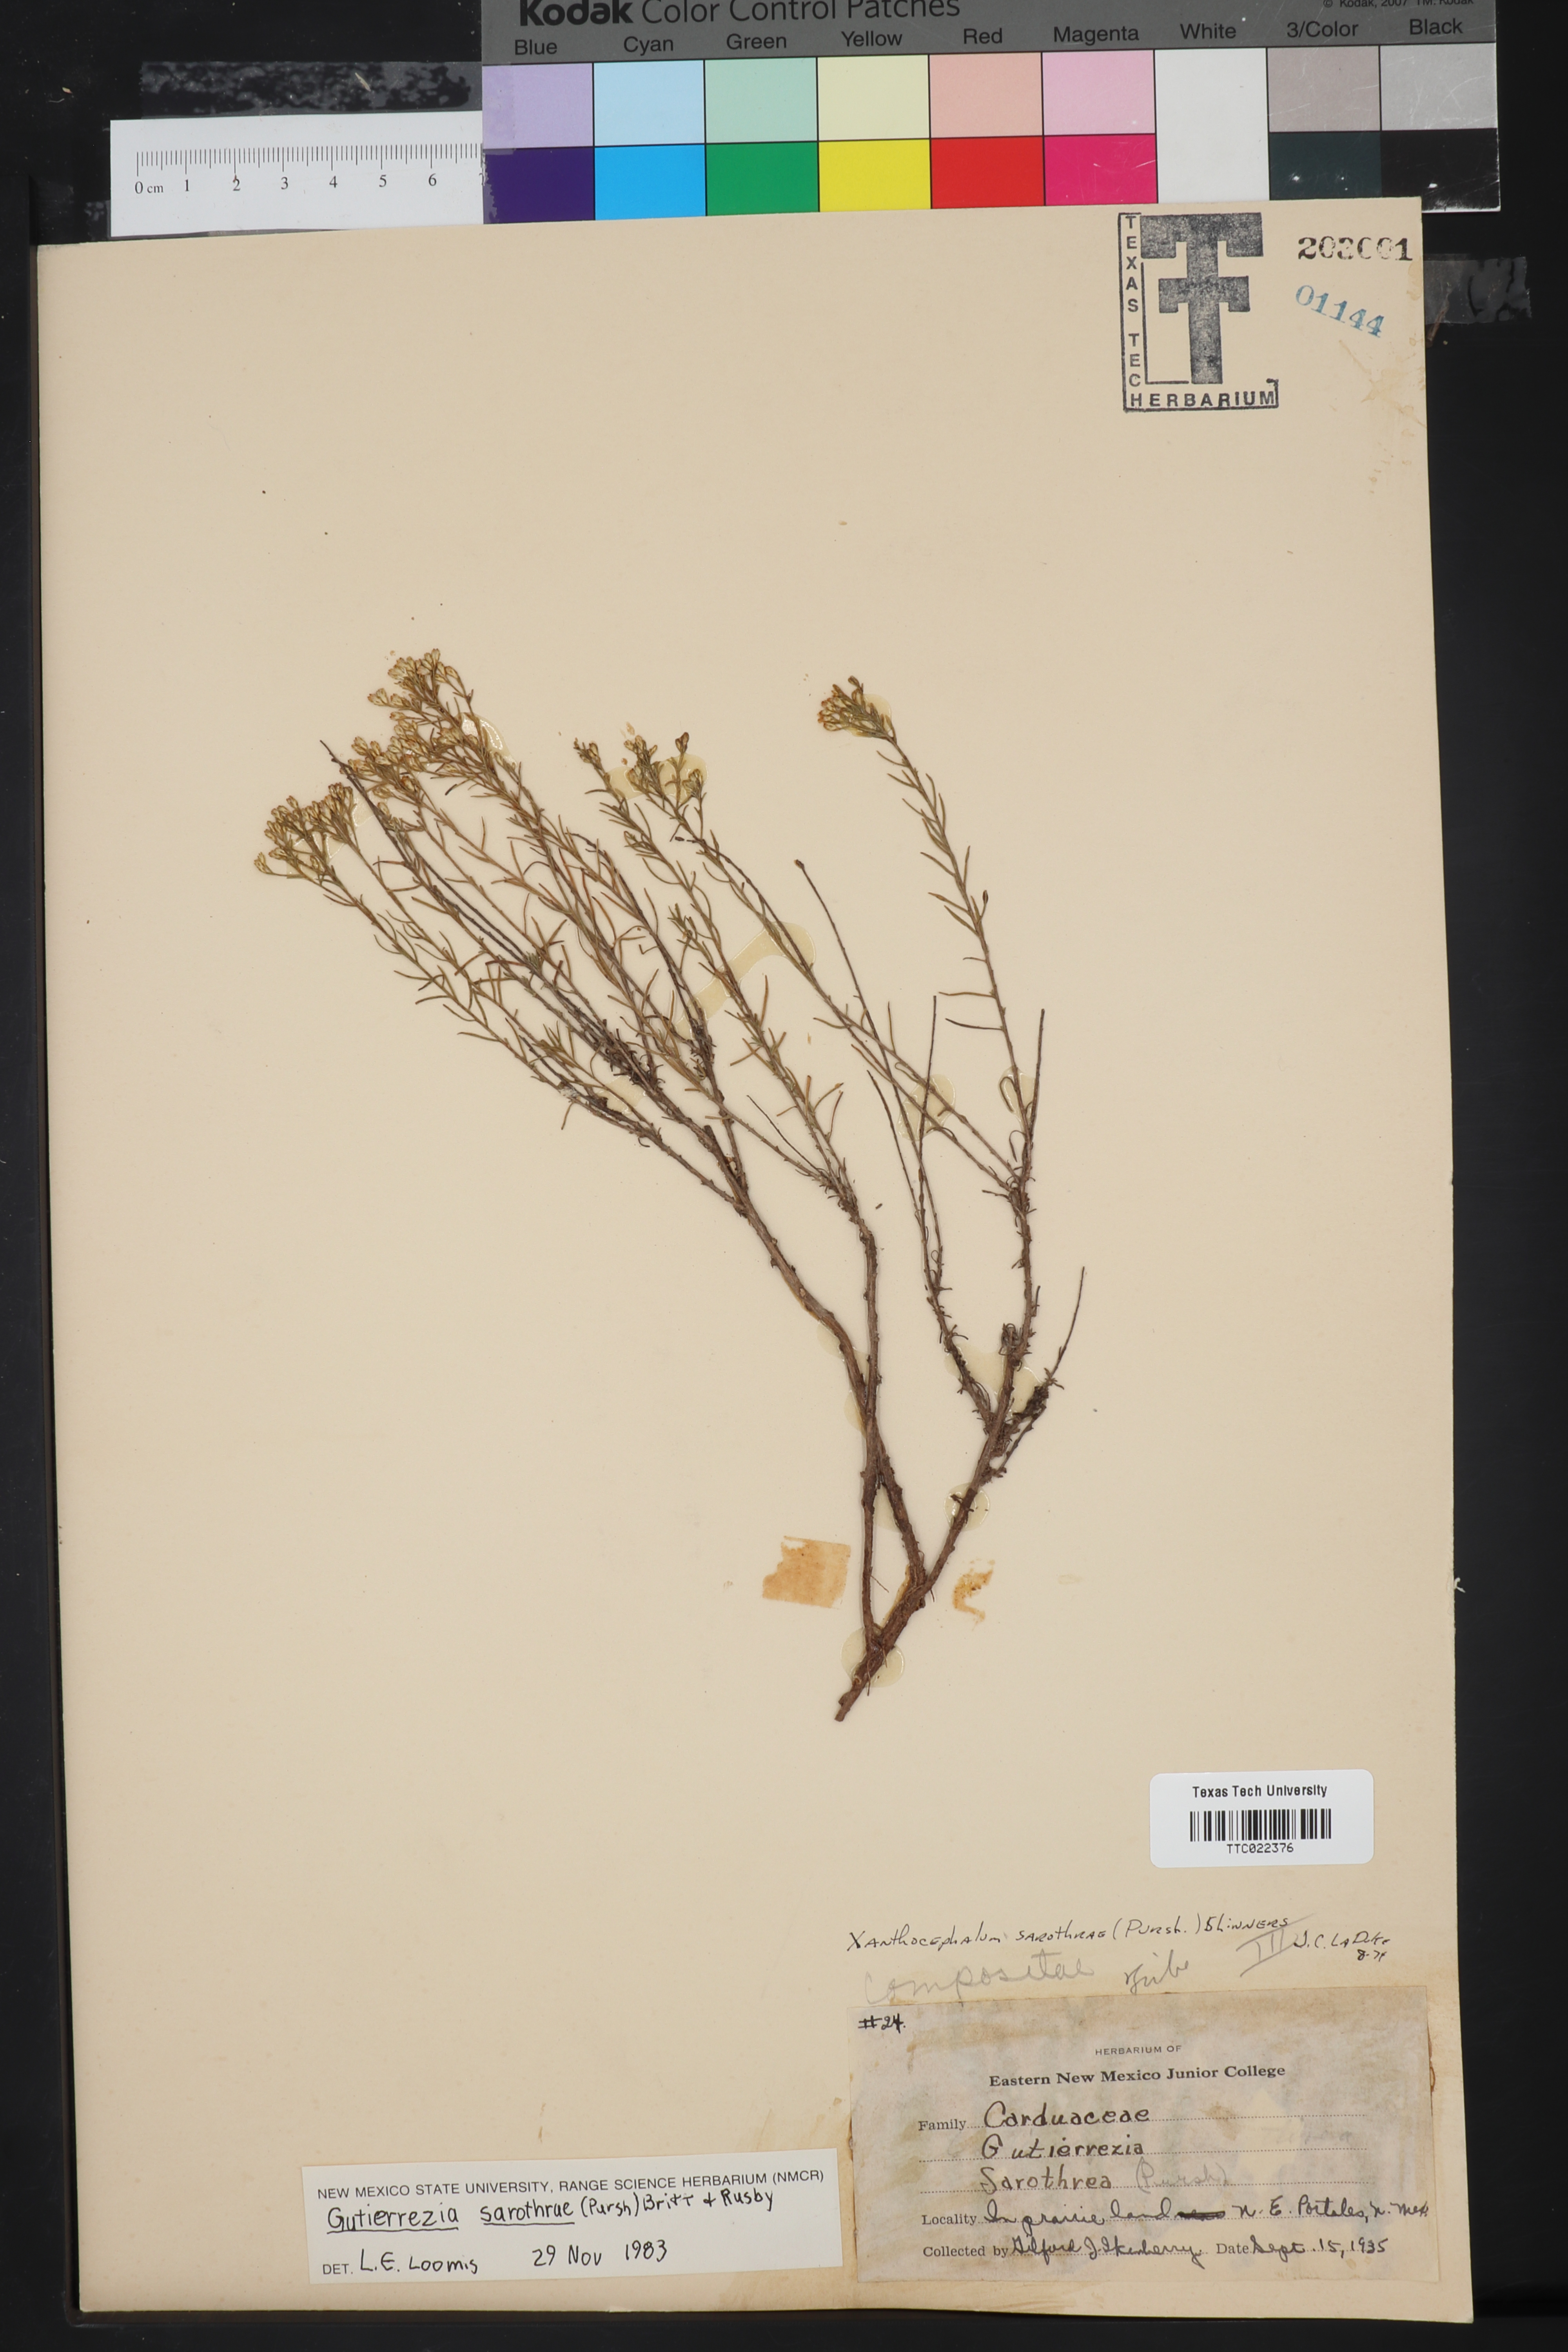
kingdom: Plantae
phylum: Tracheophyta
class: Magnoliopsida
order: Asterales
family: Asteraceae
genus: Gutierrezia
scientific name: Gutierrezia sarothrae
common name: Broom snakeweed
